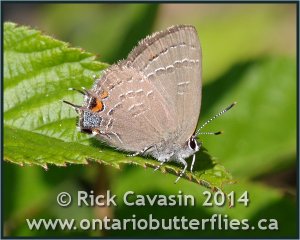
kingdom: Animalia
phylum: Arthropoda
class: Insecta
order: Lepidoptera
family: Lycaenidae
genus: Satyrium
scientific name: Satyrium calanus
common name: Banded Hairstreak
